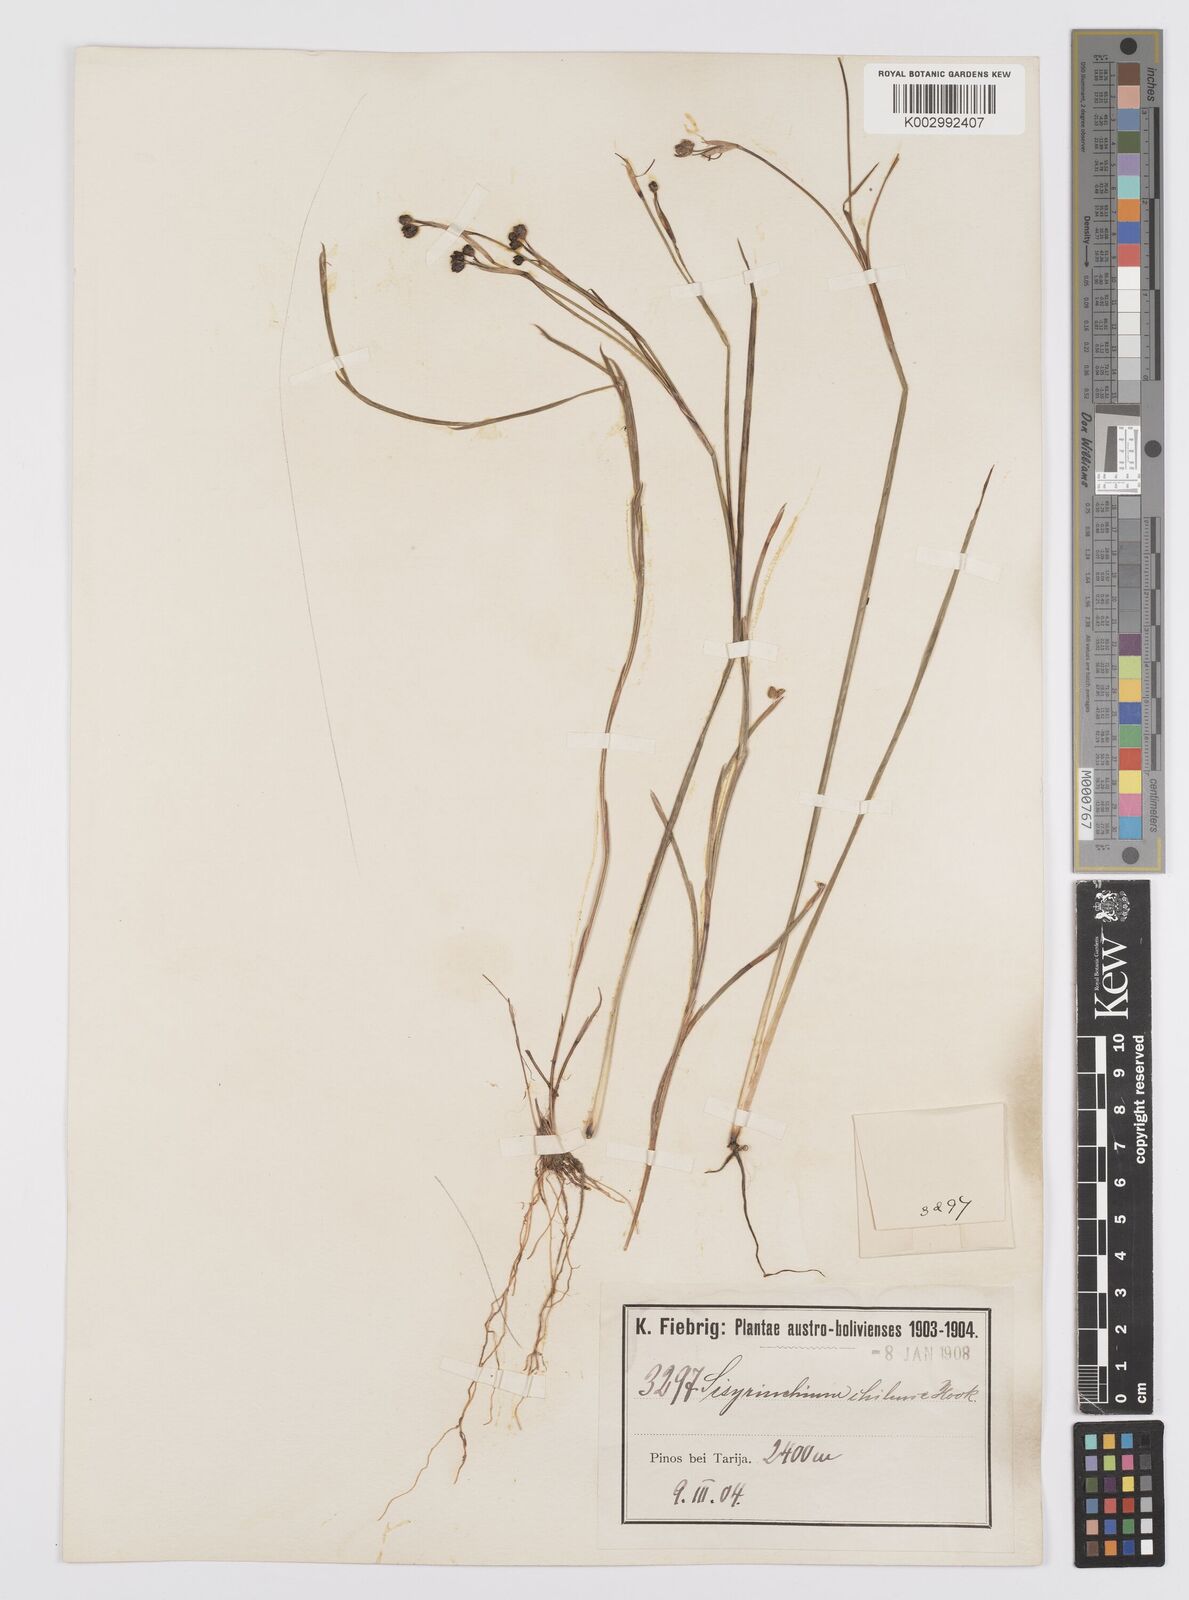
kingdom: Plantae
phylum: Tracheophyta
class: Liliopsida
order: Asparagales
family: Iridaceae
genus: Sisyrinchium
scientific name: Sisyrinchium chilense
